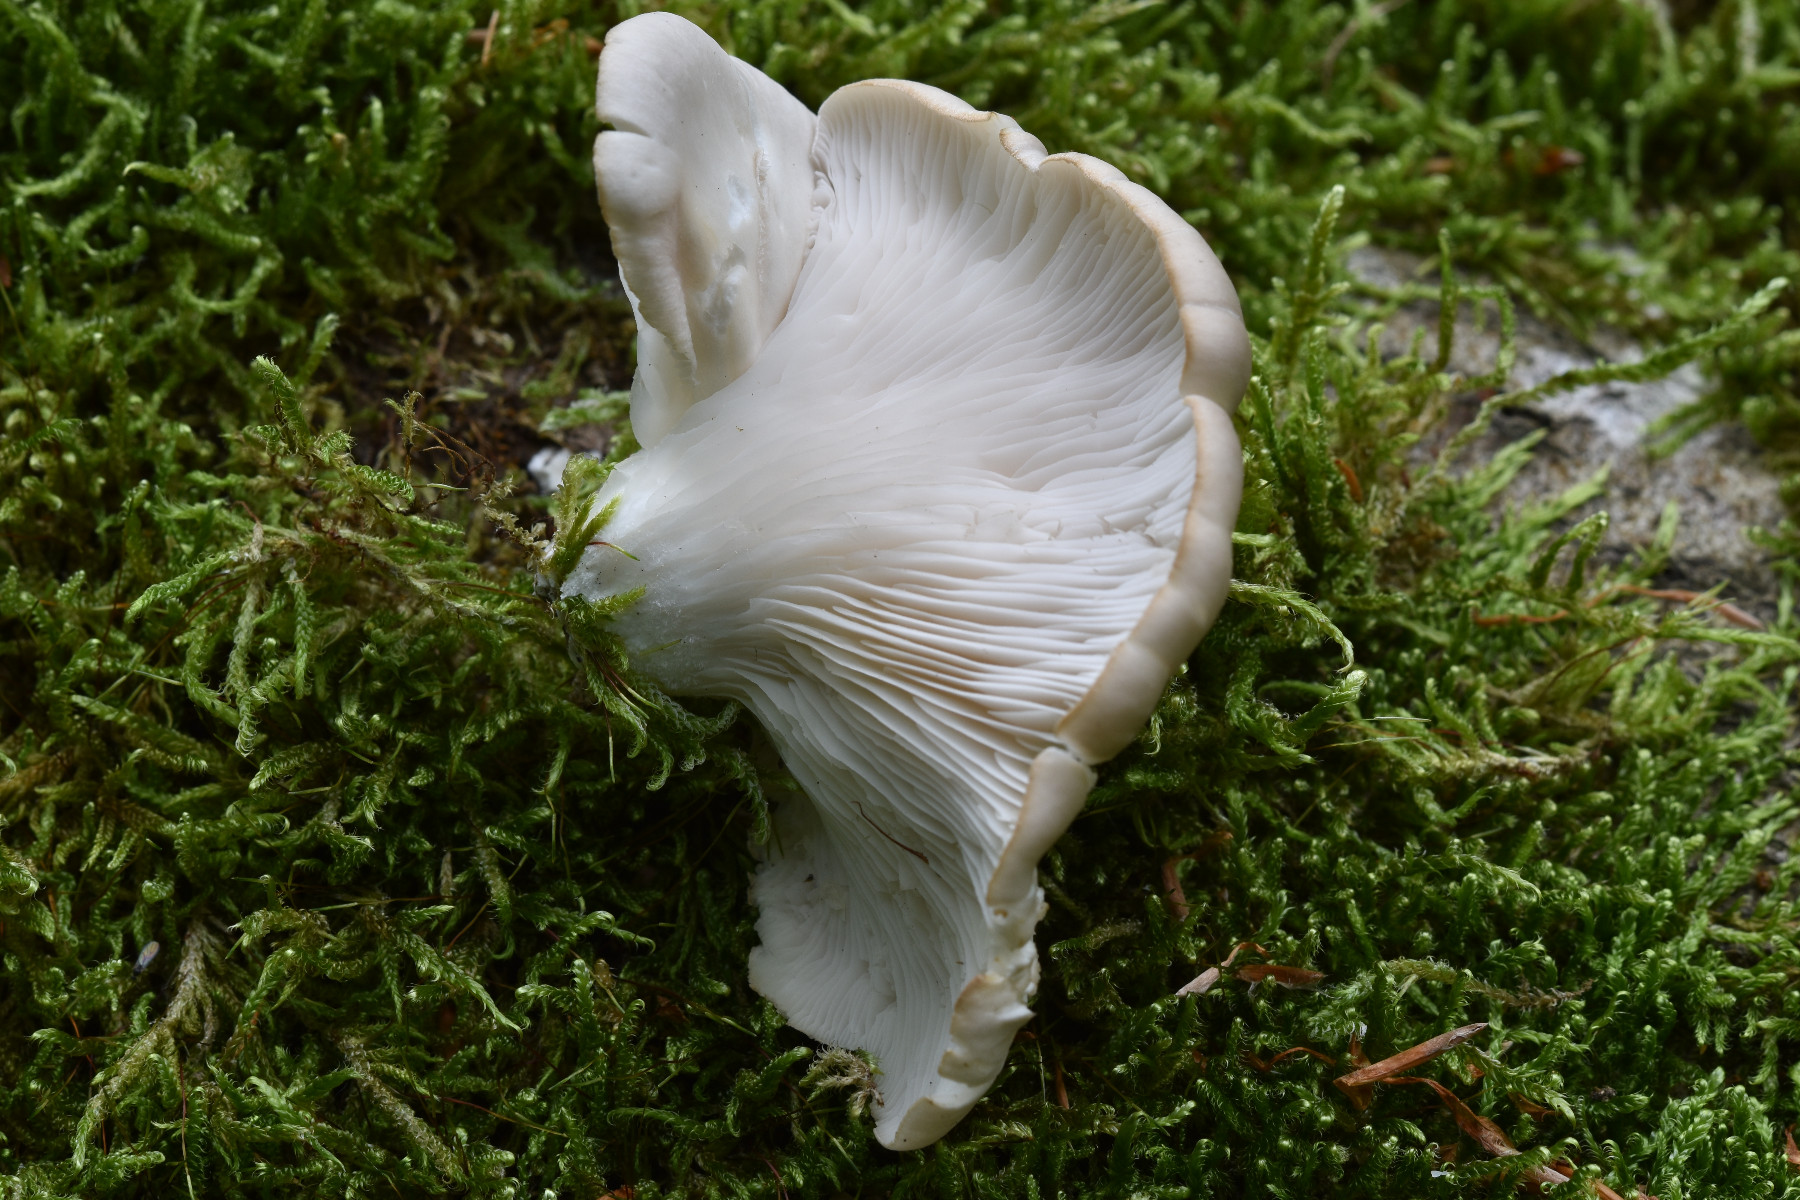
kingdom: Fungi
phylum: Basidiomycota
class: Agaricomycetes
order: Agaricales
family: Pleurotaceae
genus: Pleurotus
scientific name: Pleurotus pulmonarius
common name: sommer-østershat
